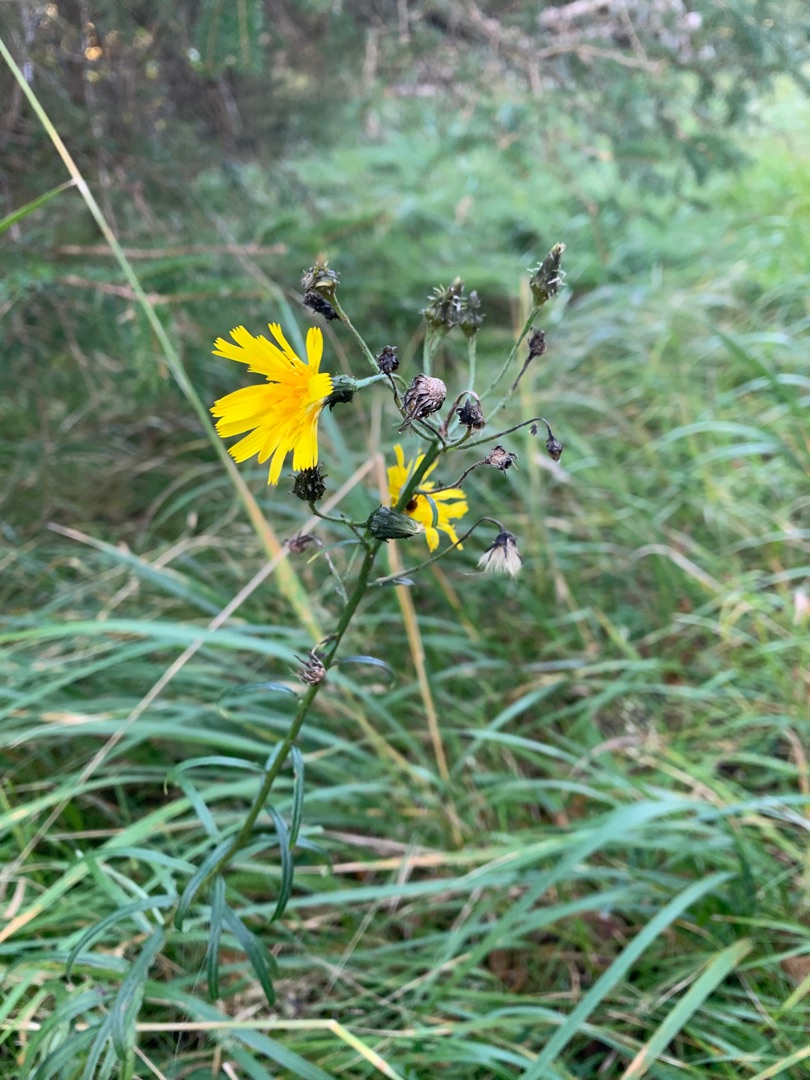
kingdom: Plantae
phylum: Tracheophyta
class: Magnoliopsida
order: Asterales
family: Asteraceae
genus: Hieracium
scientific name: Hieracium umbellatum
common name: Smalbladet høgeurt
